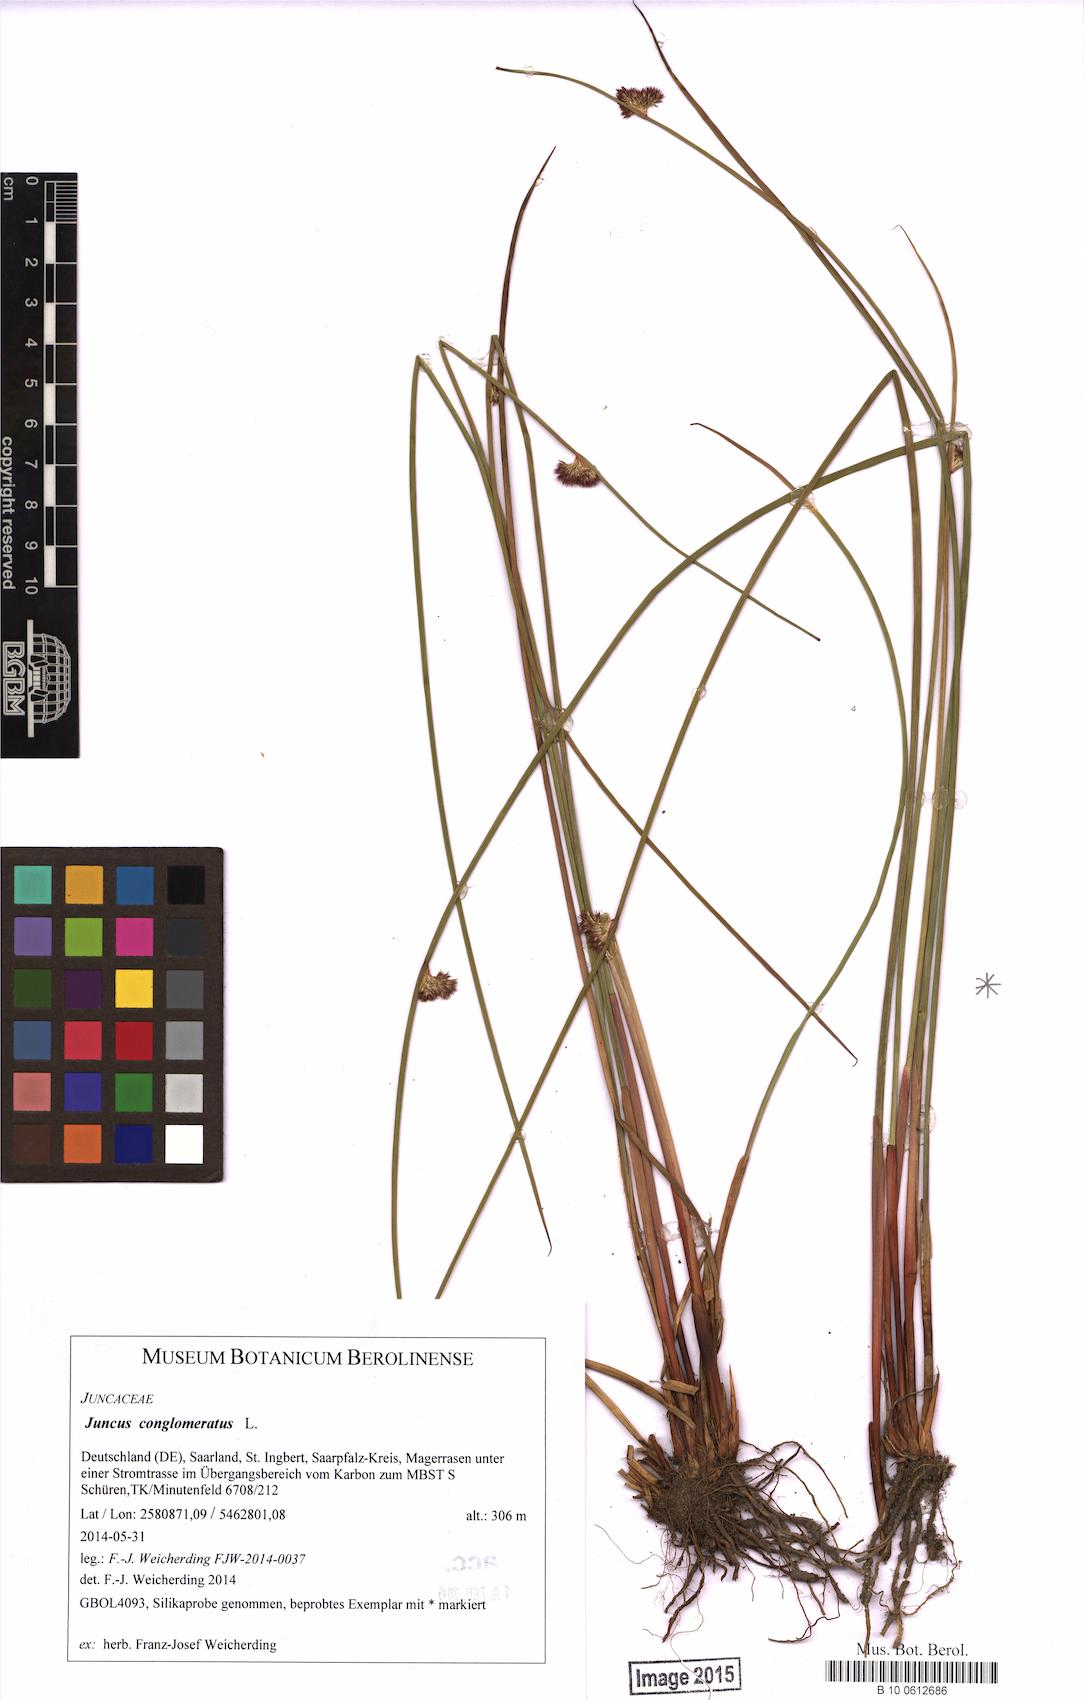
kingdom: Plantae
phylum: Tracheophyta
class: Liliopsida
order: Poales
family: Juncaceae
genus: Juncus
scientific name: Juncus conglomeratus
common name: Compact rush
